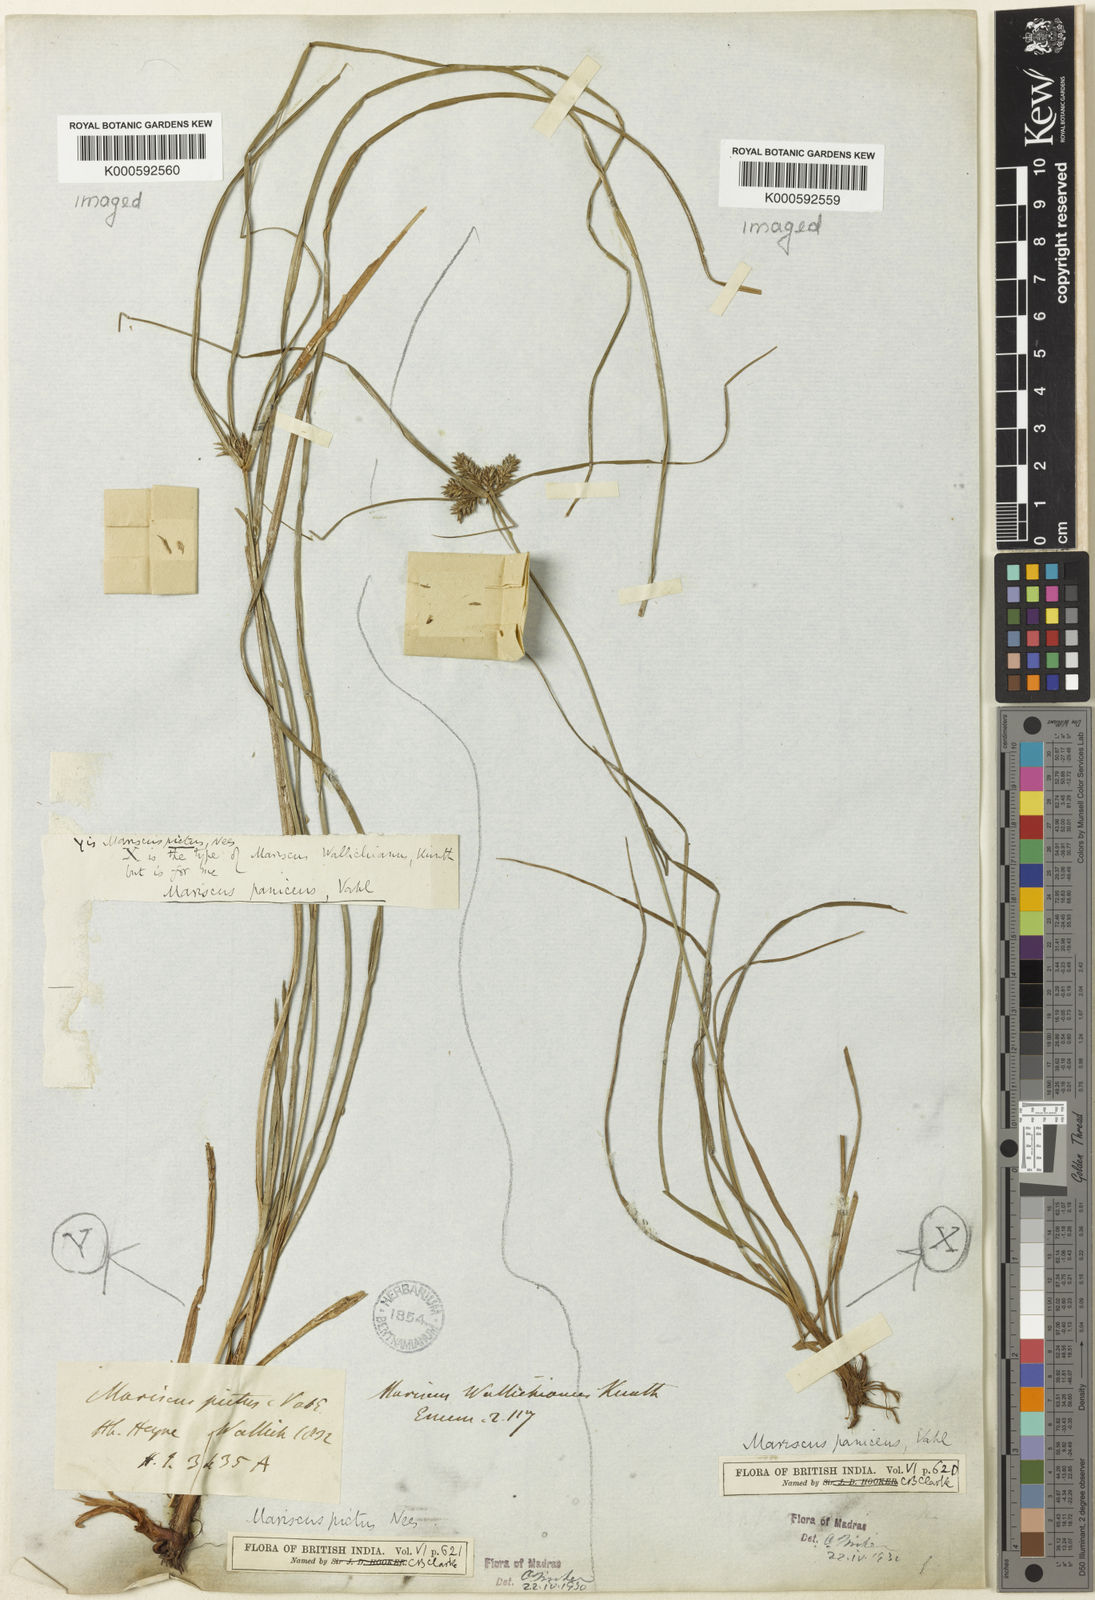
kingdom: Plantae
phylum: Tracheophyta
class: Liliopsida
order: Poales
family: Cyperaceae
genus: Cyperus
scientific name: Cyperus paniceus
